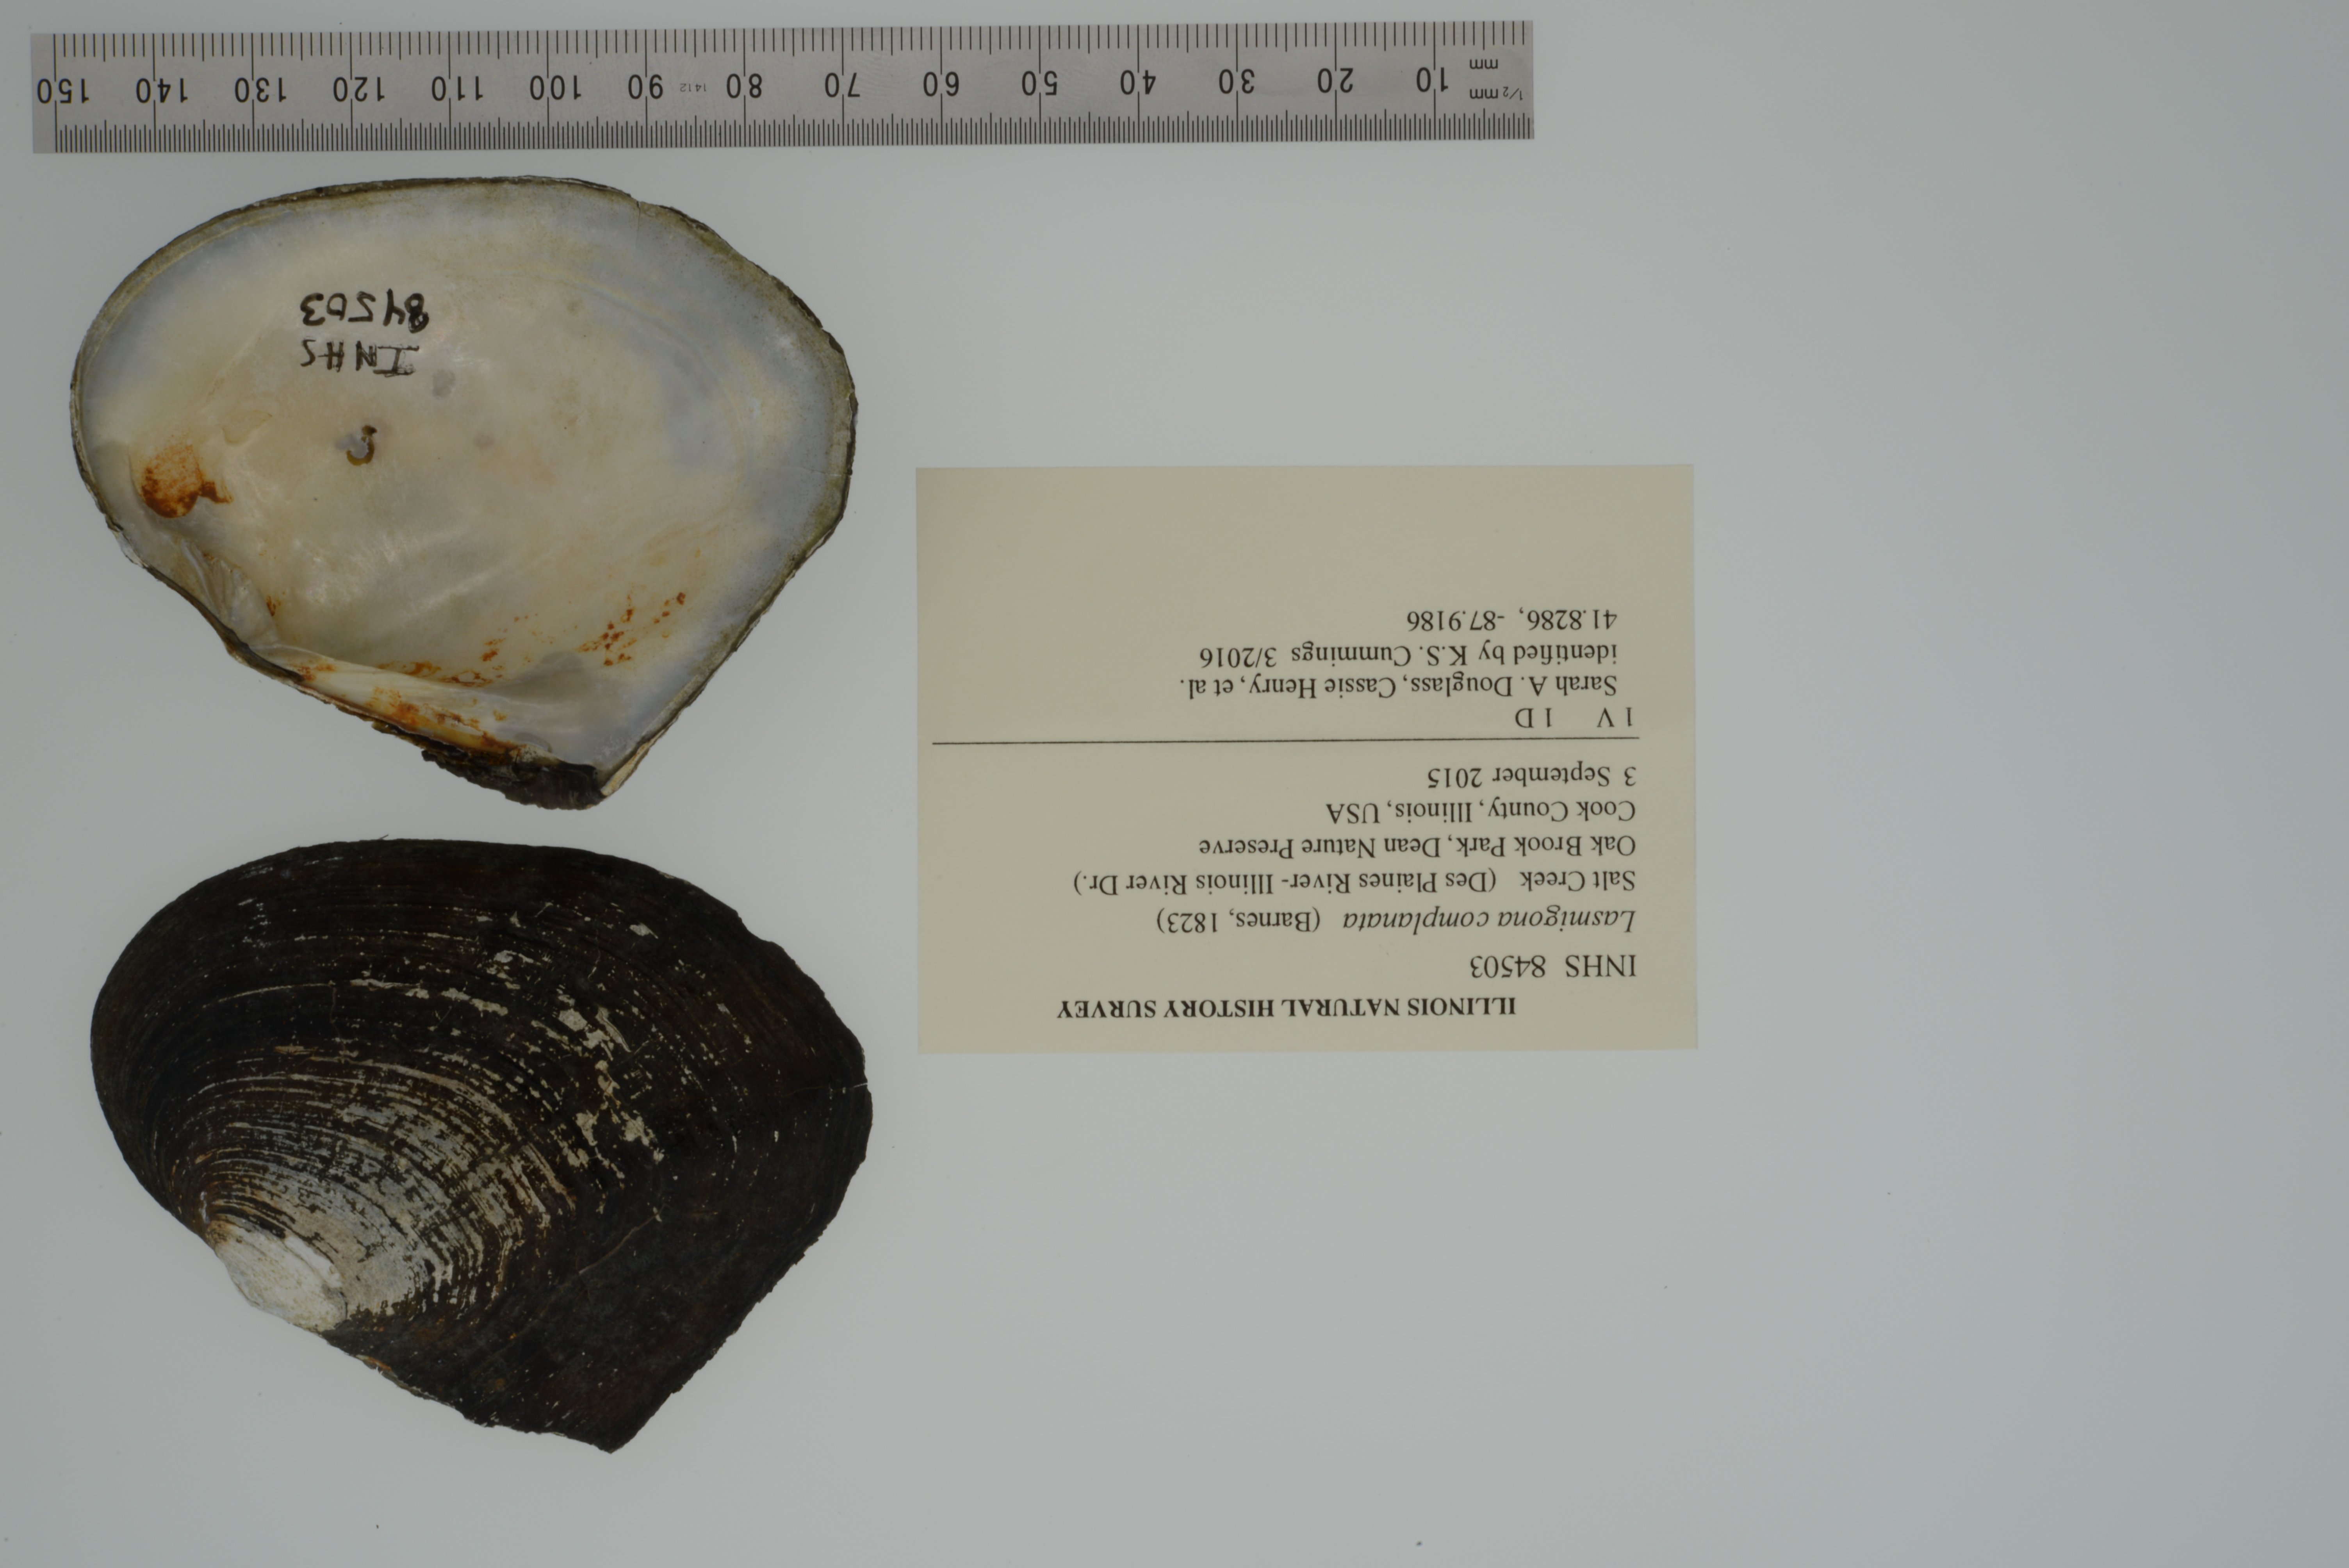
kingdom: Animalia
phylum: Mollusca
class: Bivalvia
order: Unionida
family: Unionidae
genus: Lasmigona
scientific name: Lasmigona complanata
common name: White heelsplitter
